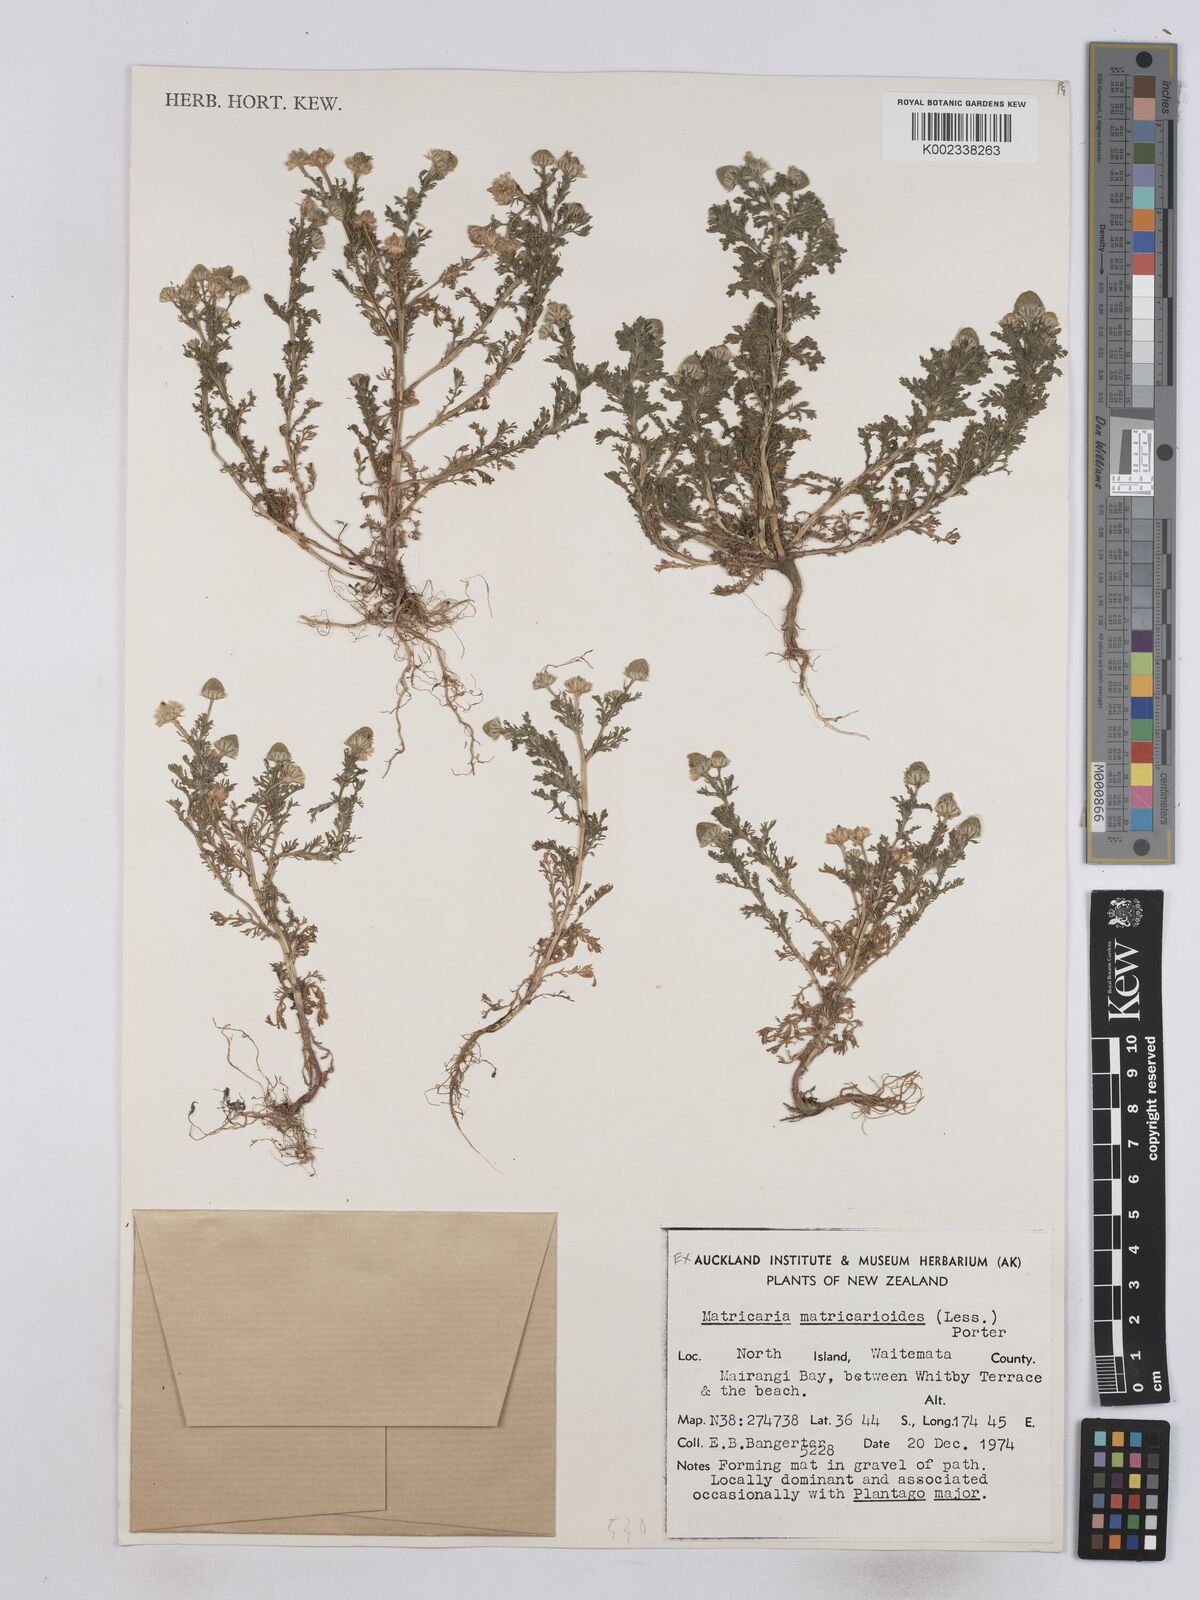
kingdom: Plantae
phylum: Tracheophyta
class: Magnoliopsida
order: Asterales
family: Asteraceae
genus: Matricaria
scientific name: Matricaria discoidea
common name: Disc mayweed
